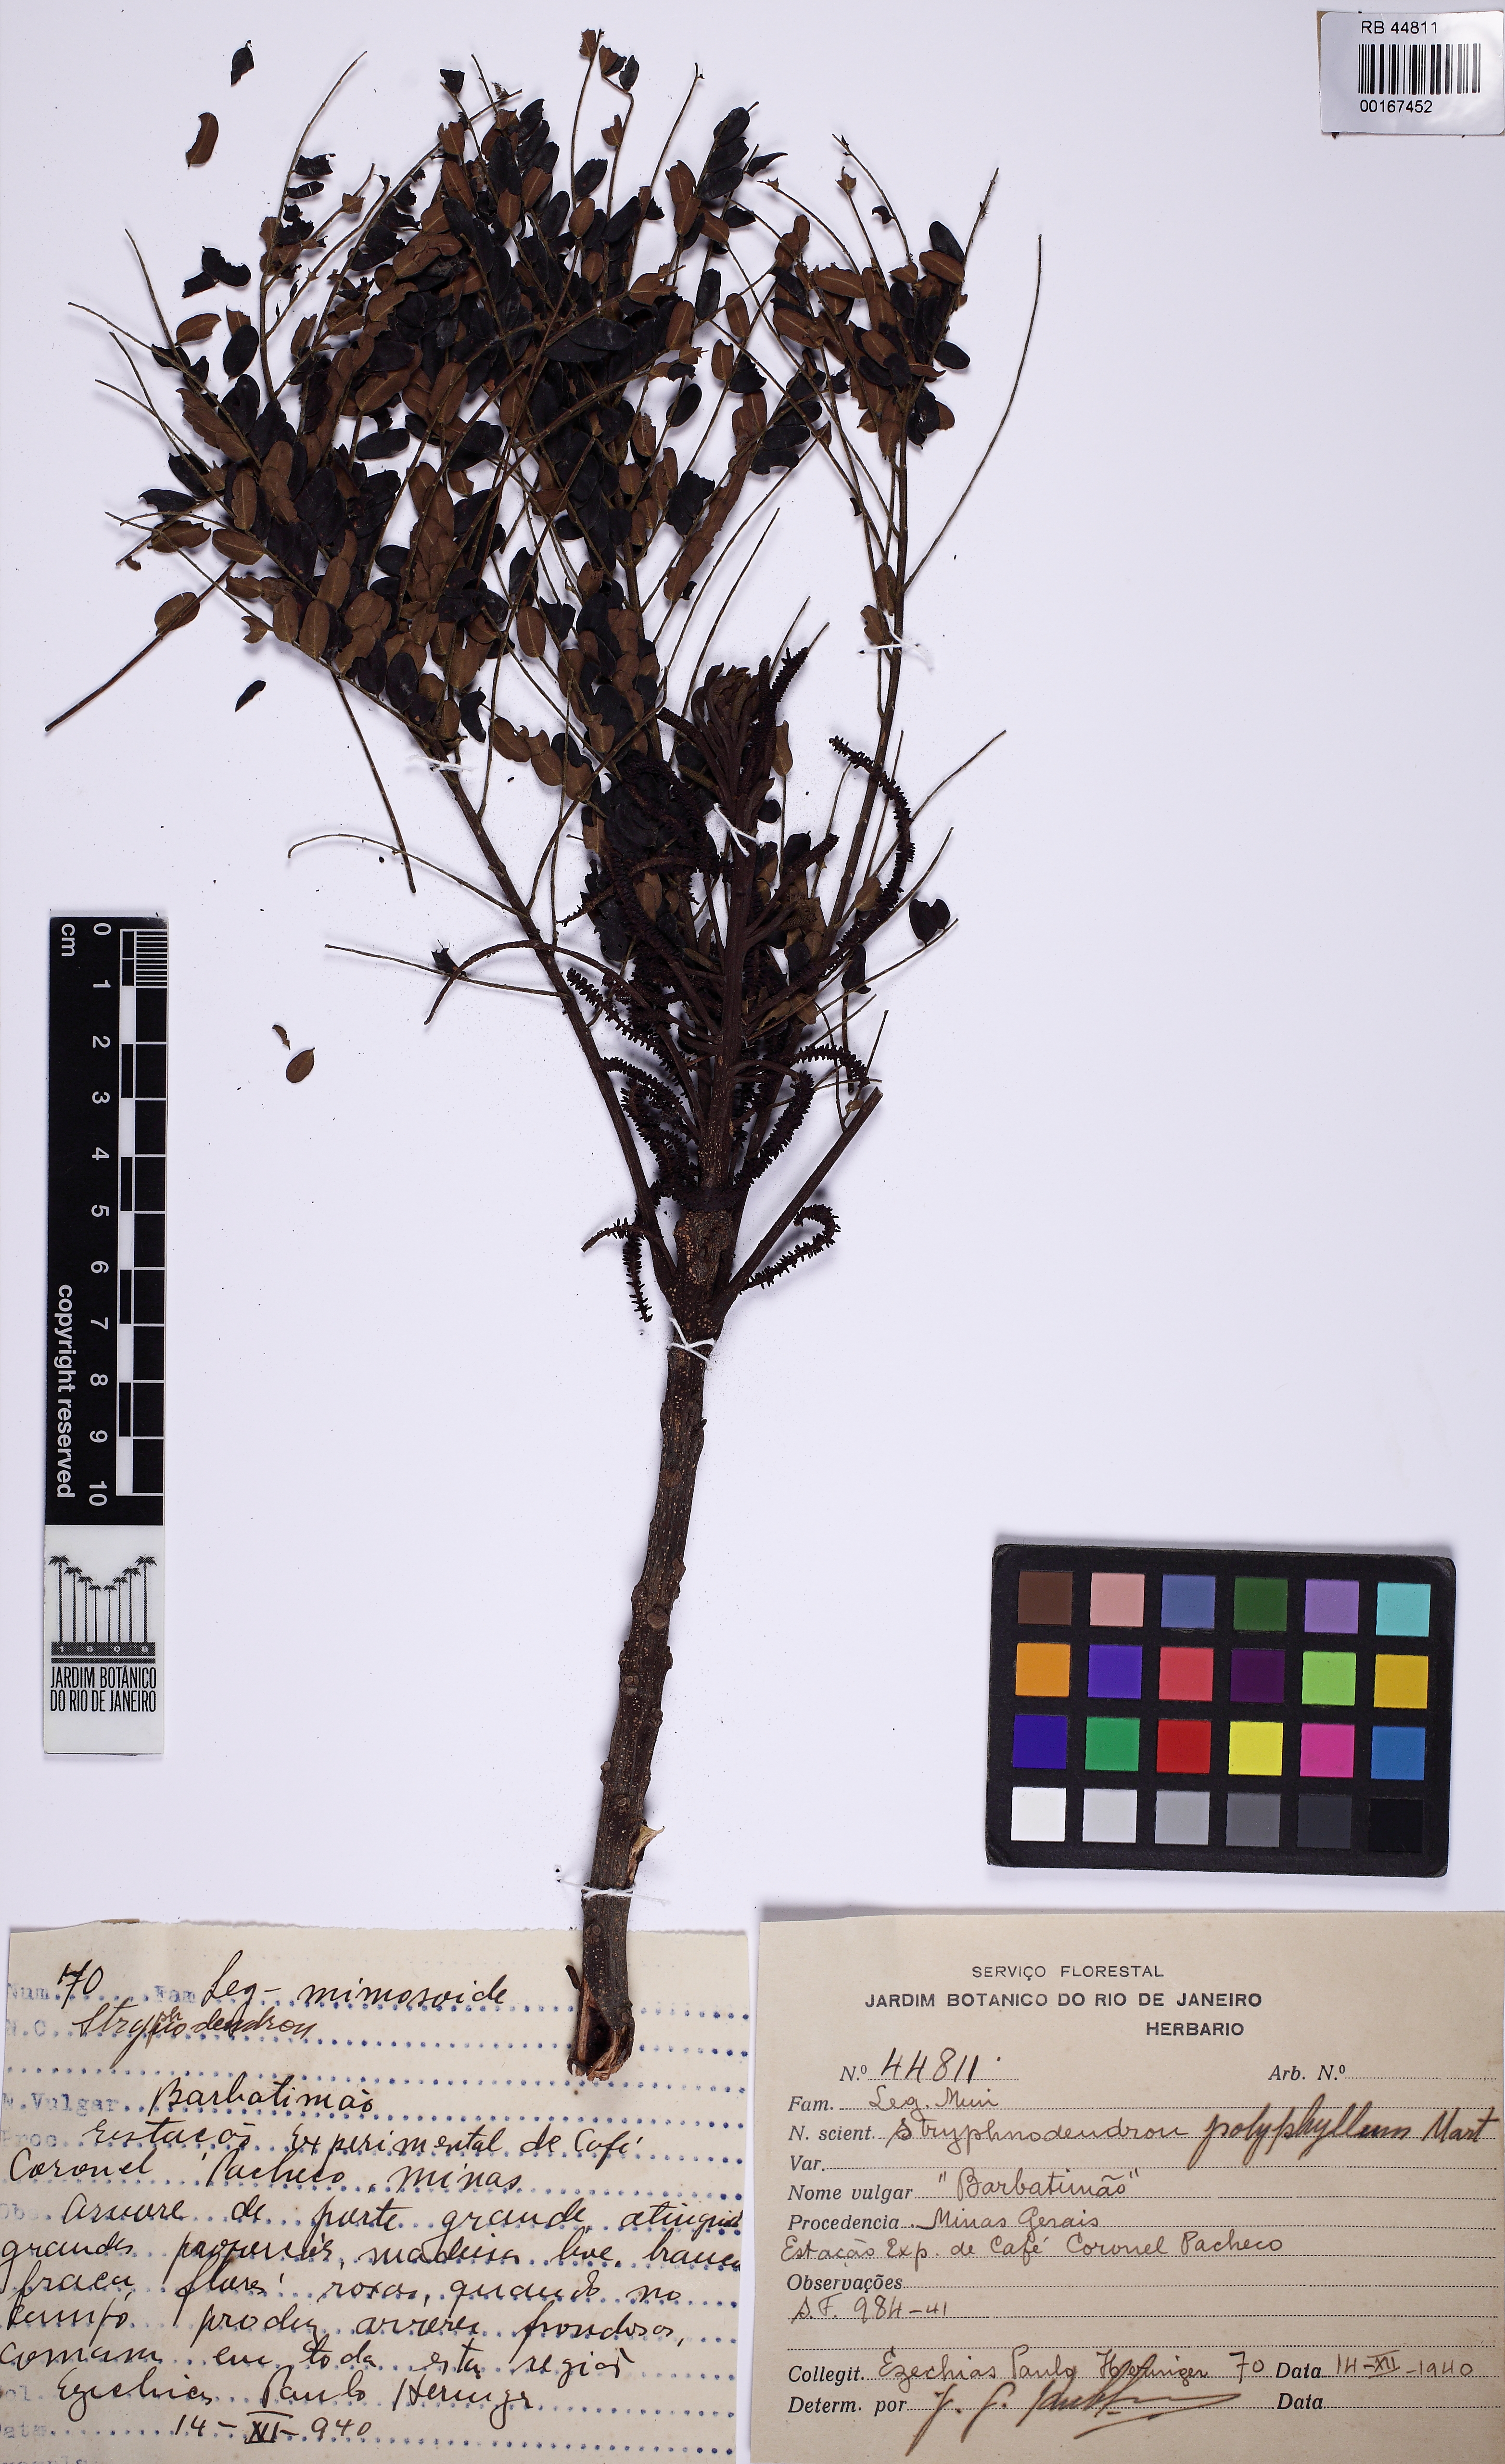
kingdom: Plantae
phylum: Tracheophyta
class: Magnoliopsida
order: Fabales
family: Fabaceae
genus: Stryphnodendron
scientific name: Stryphnodendron polyphyllum
